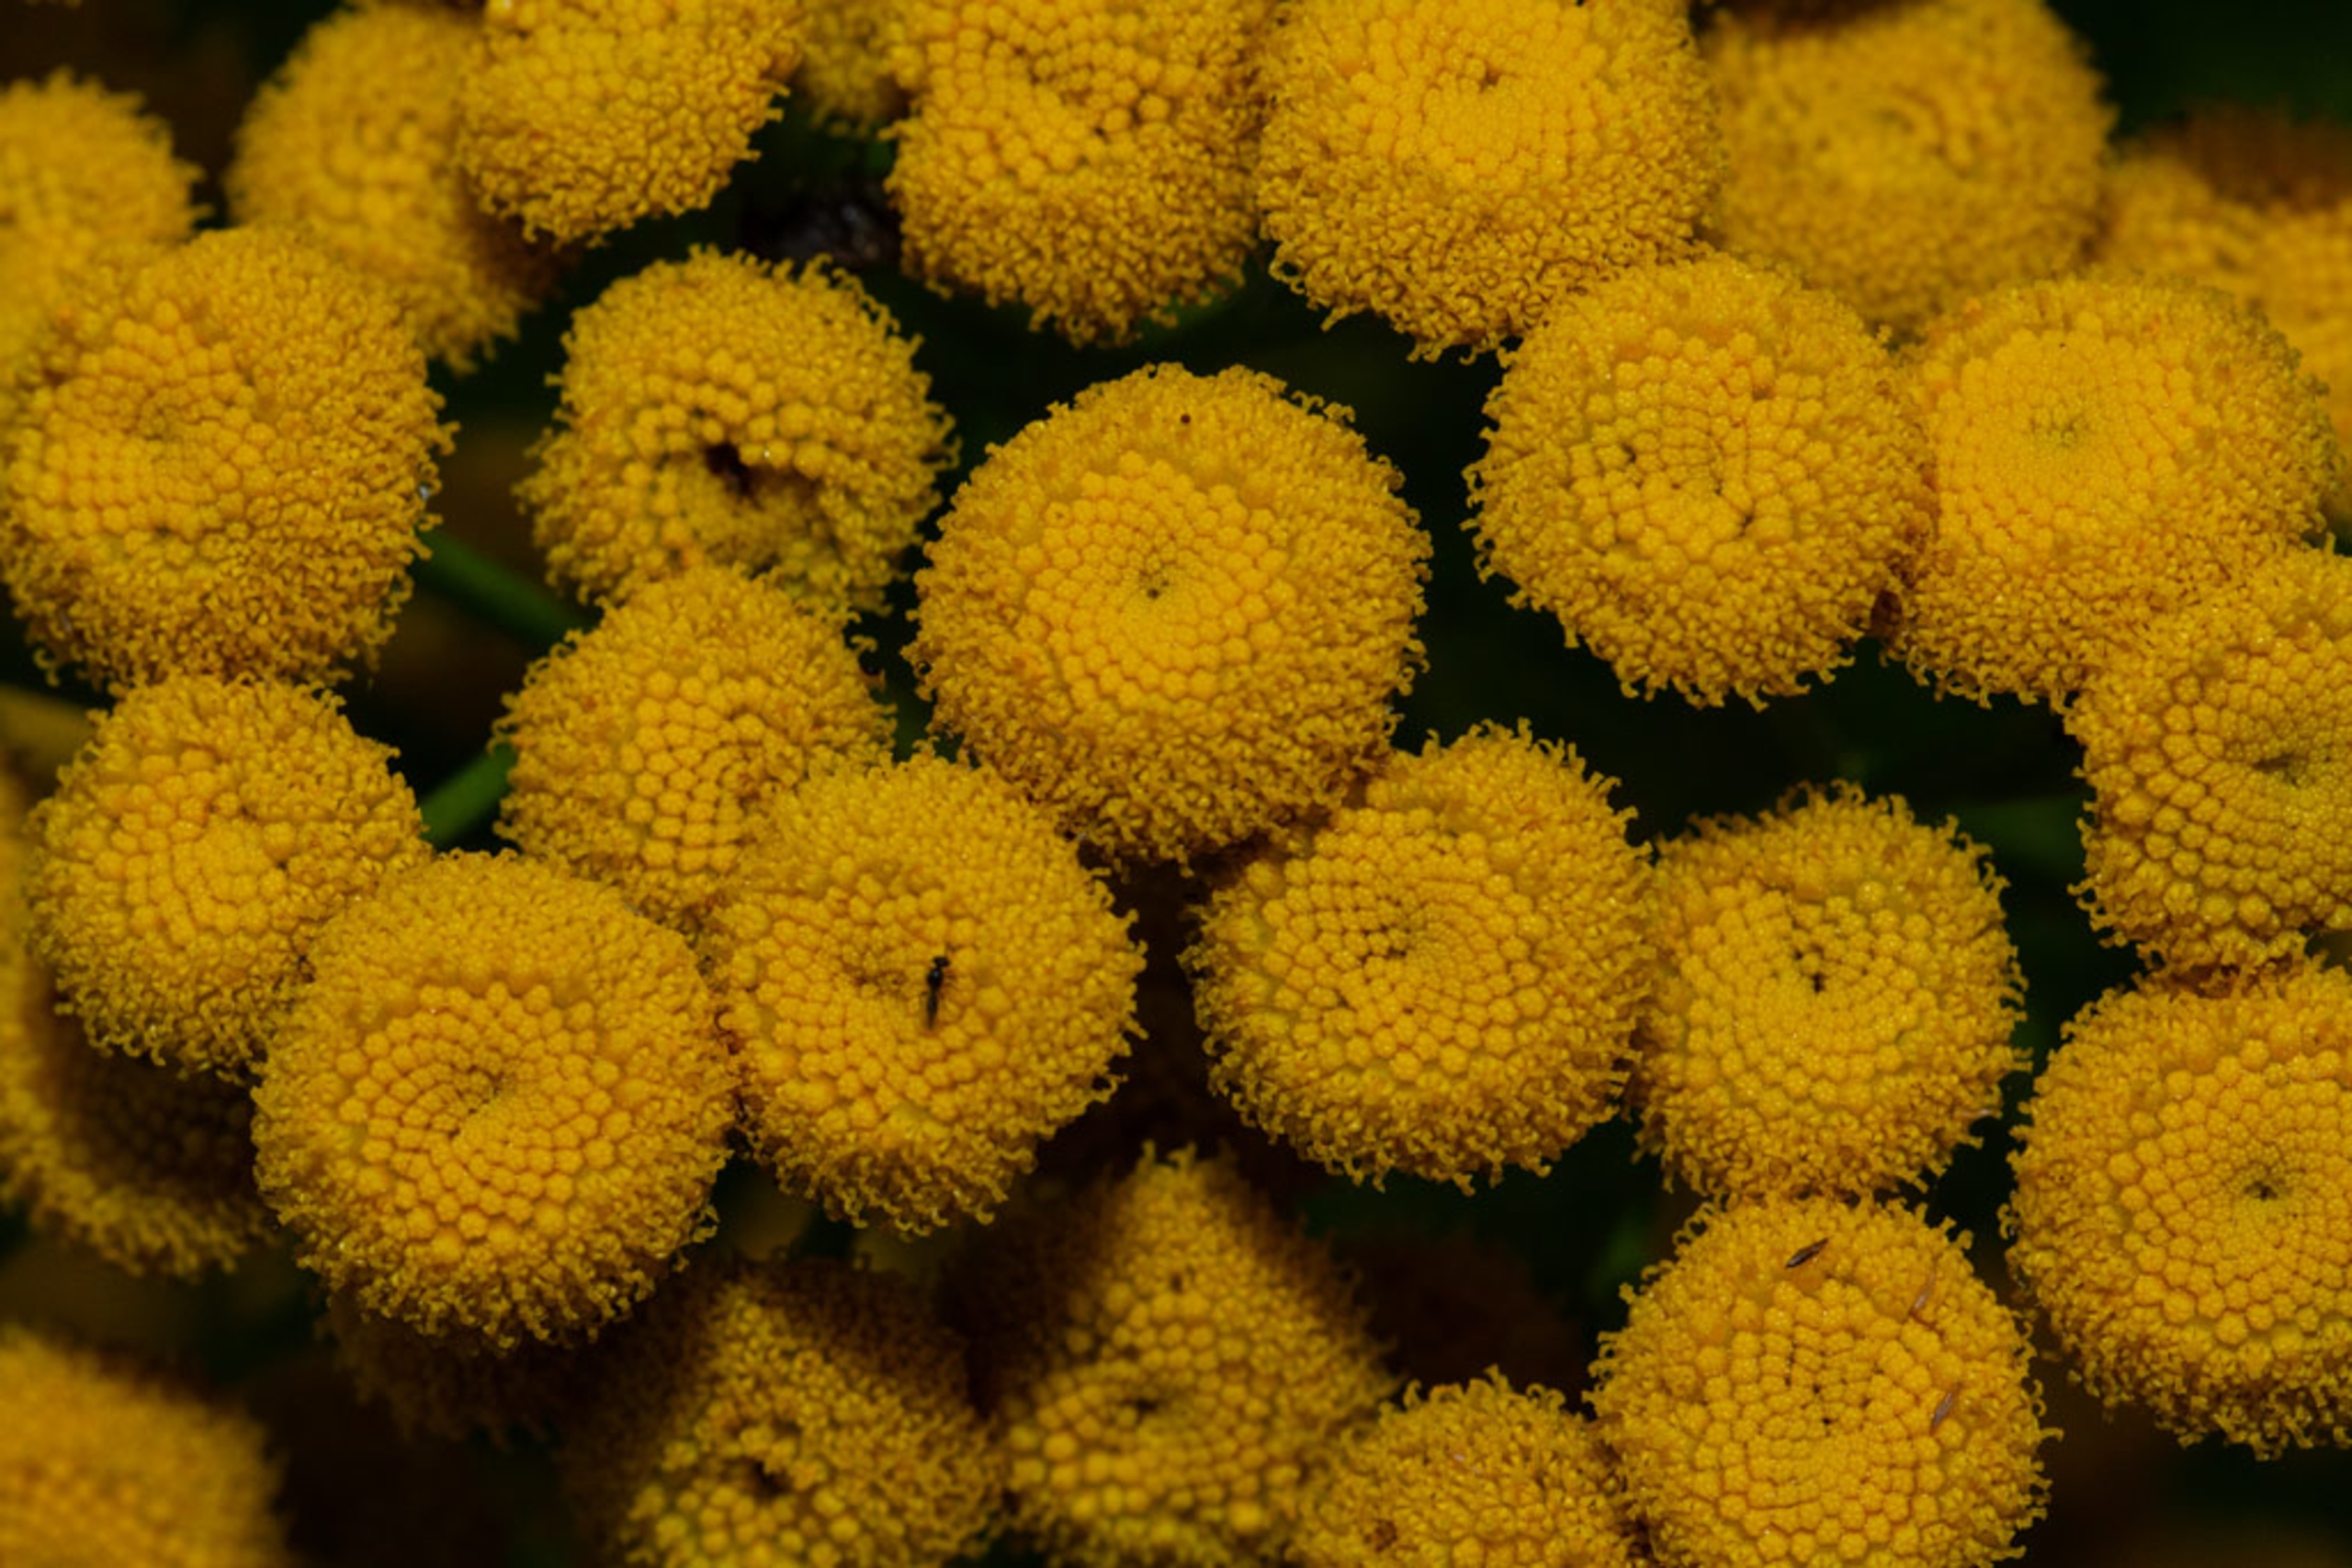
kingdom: Plantae
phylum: Tracheophyta
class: Magnoliopsida
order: Asterales
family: Asteraceae
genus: Tanacetum
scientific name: Tanacetum vulgare
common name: Rejnfan
